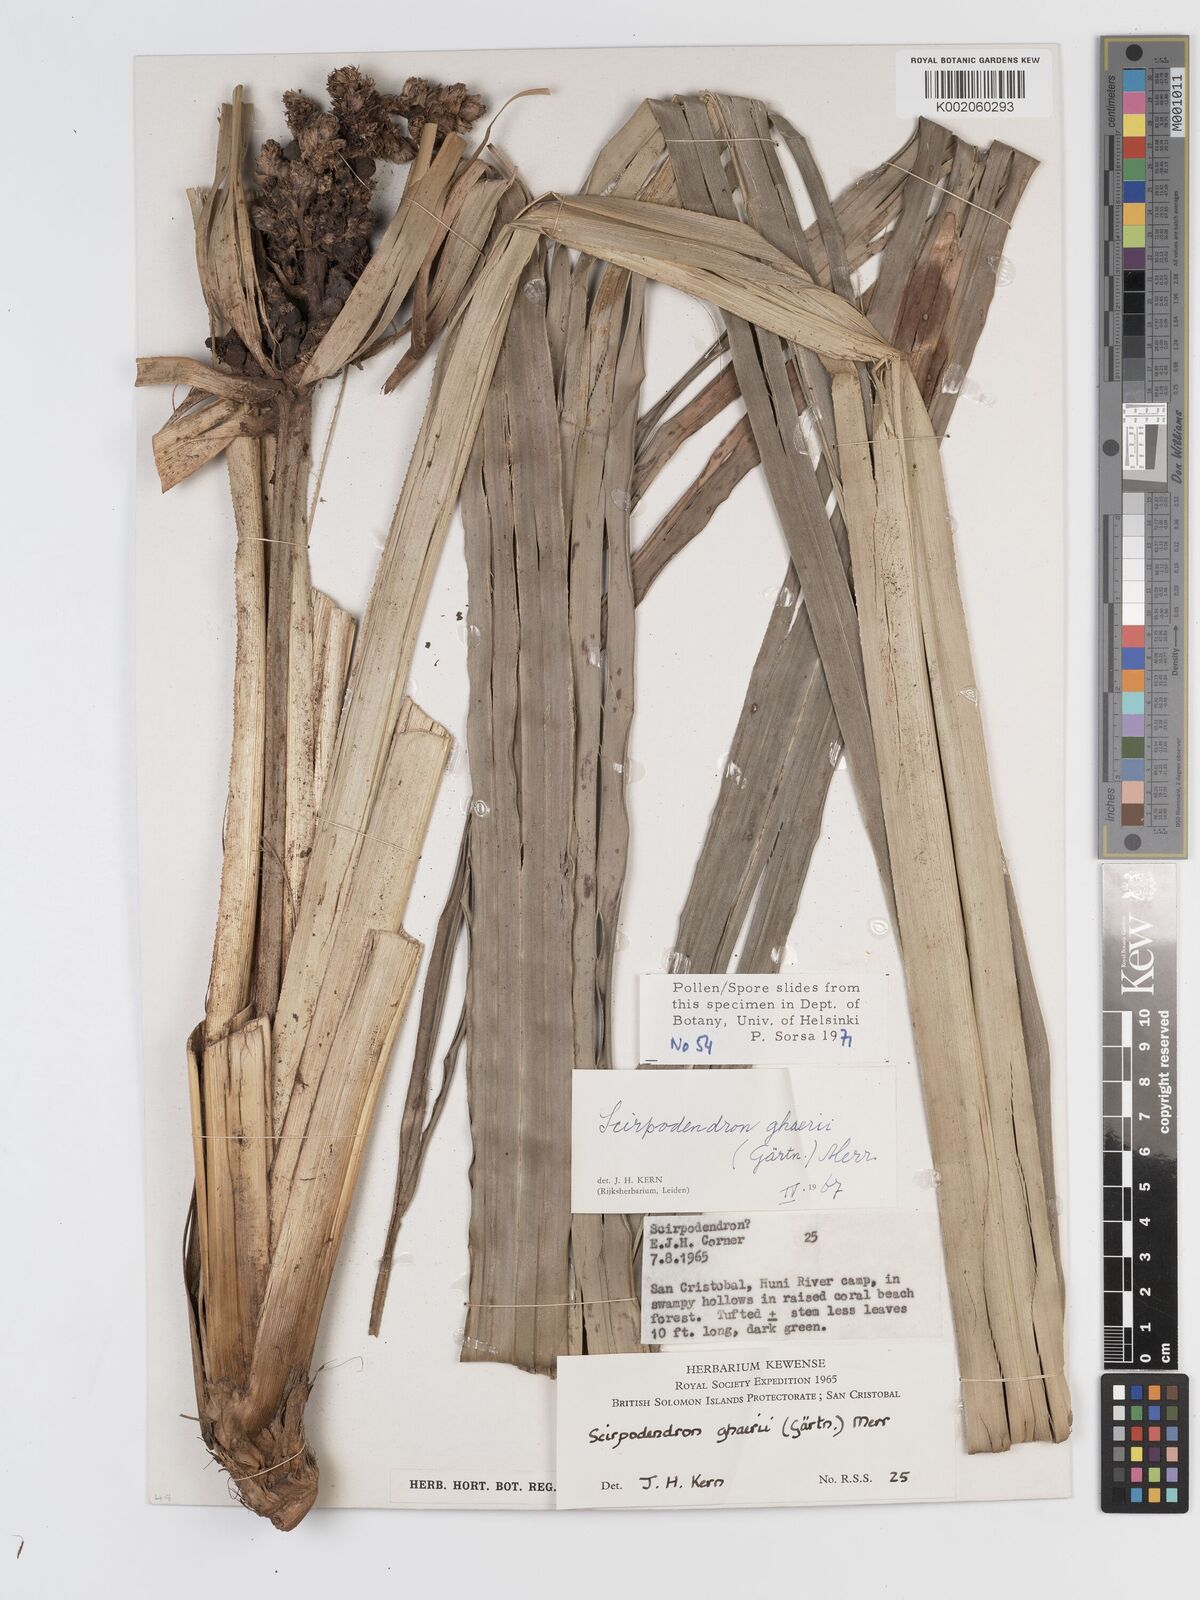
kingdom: Plantae
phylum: Tracheophyta
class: Liliopsida
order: Poales
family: Cyperaceae
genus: Scirpodendron
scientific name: Scirpodendron ghaeri
